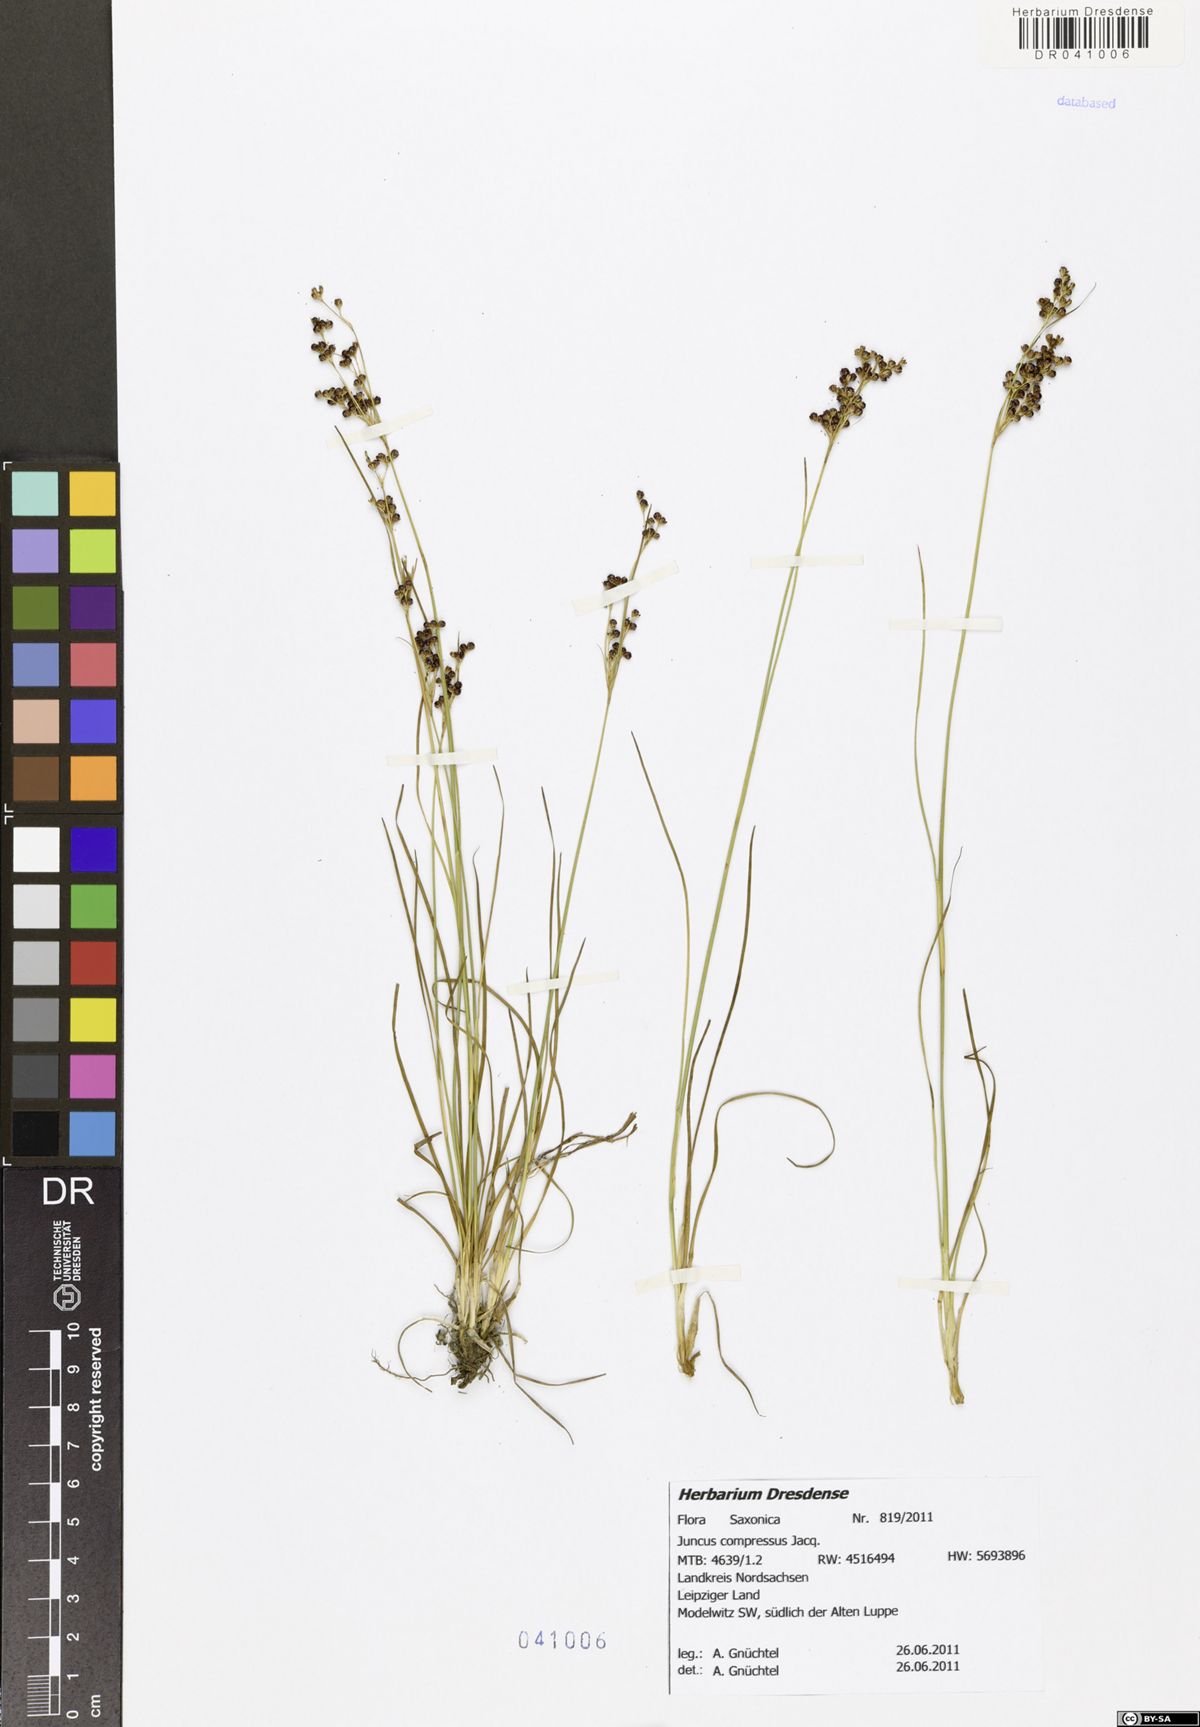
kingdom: Plantae
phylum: Tracheophyta
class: Liliopsida
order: Poales
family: Juncaceae
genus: Juncus
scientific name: Juncus compressus
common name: Round-fruited rush
